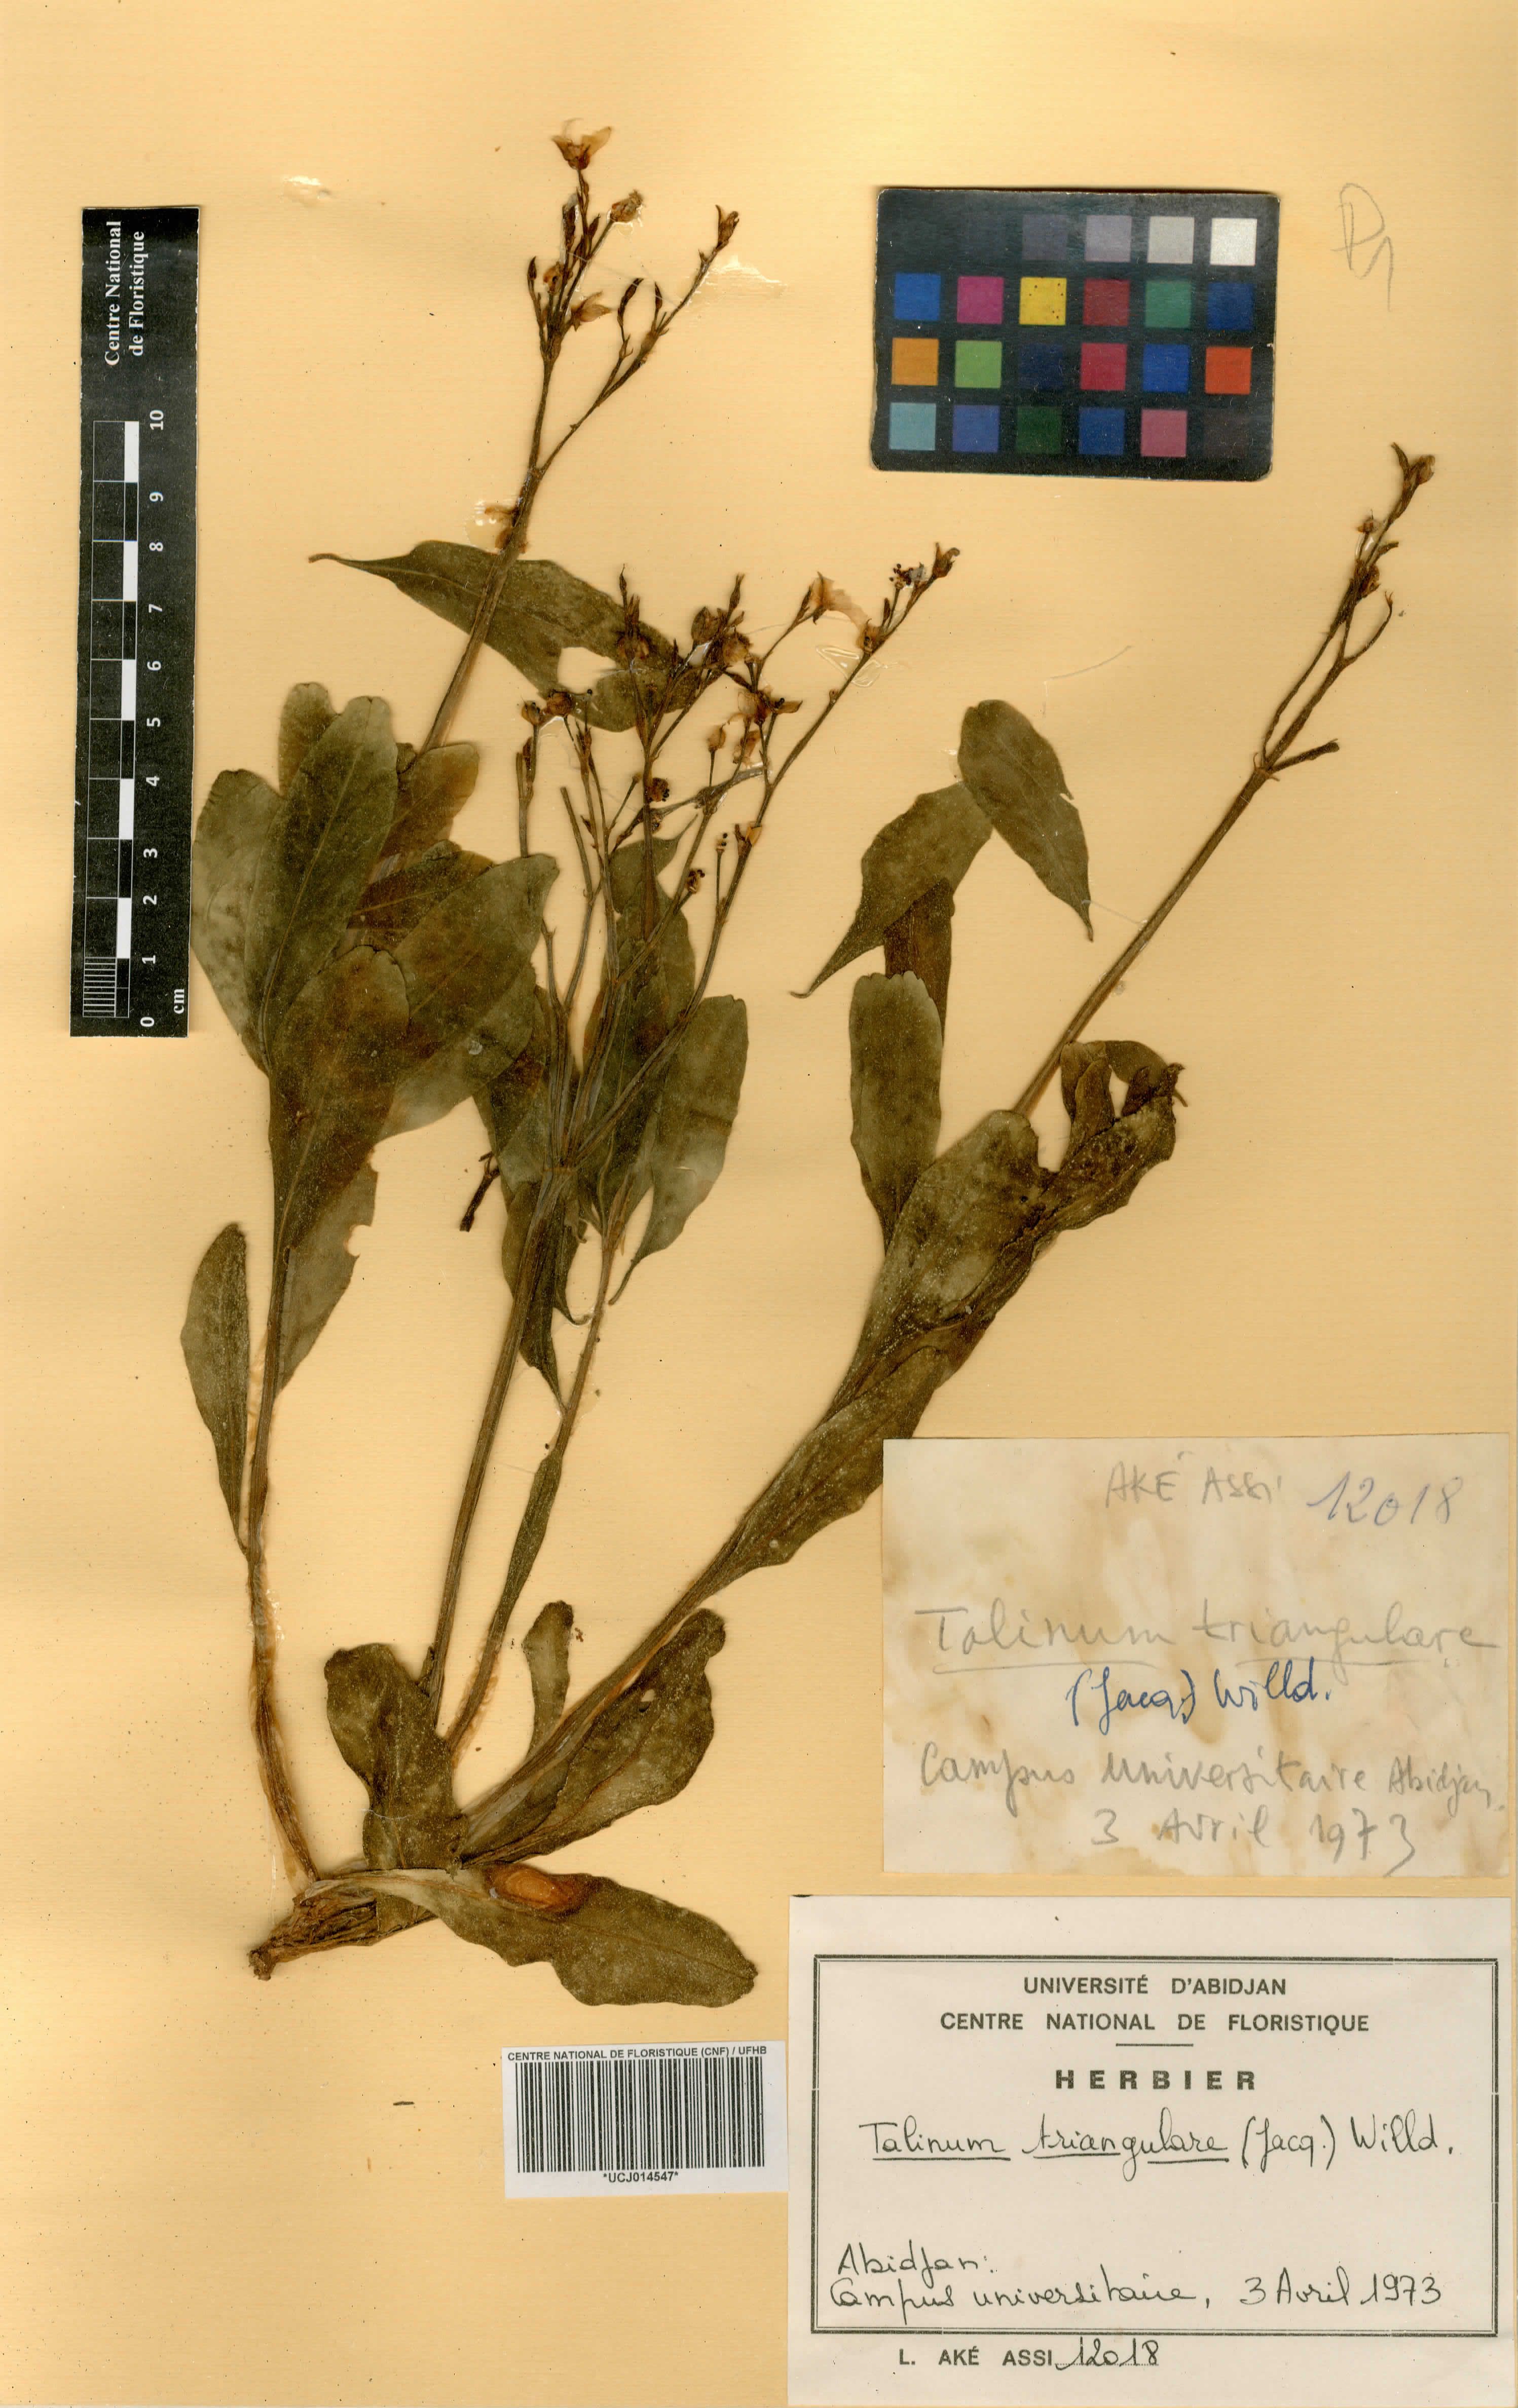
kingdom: Plantae
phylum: Tracheophyta
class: Magnoliopsida
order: Caryophyllales
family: Talinaceae
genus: Talinum
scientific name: Talinum fruticosum
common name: Verdolaga-francesa
